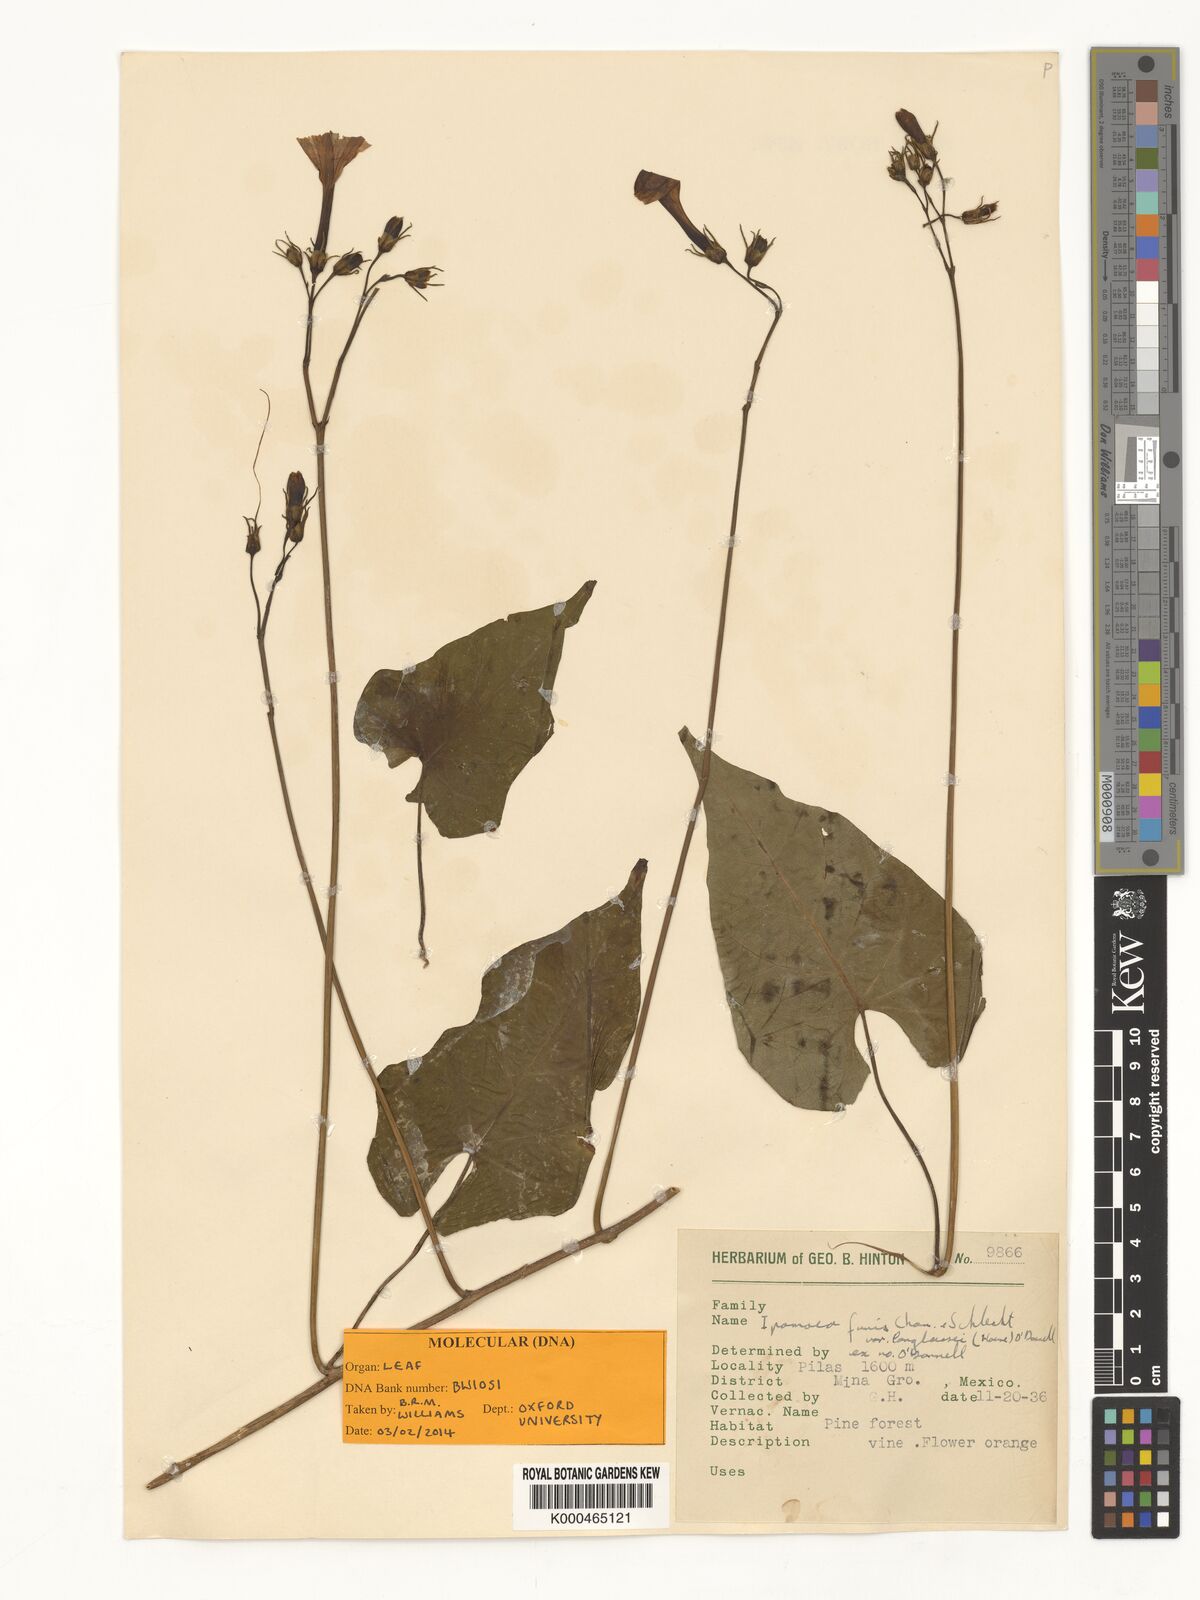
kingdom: Plantae
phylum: Tracheophyta
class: Magnoliopsida
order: Solanales
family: Convolvulaceae
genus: Ipomoea
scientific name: Ipomoea funis
